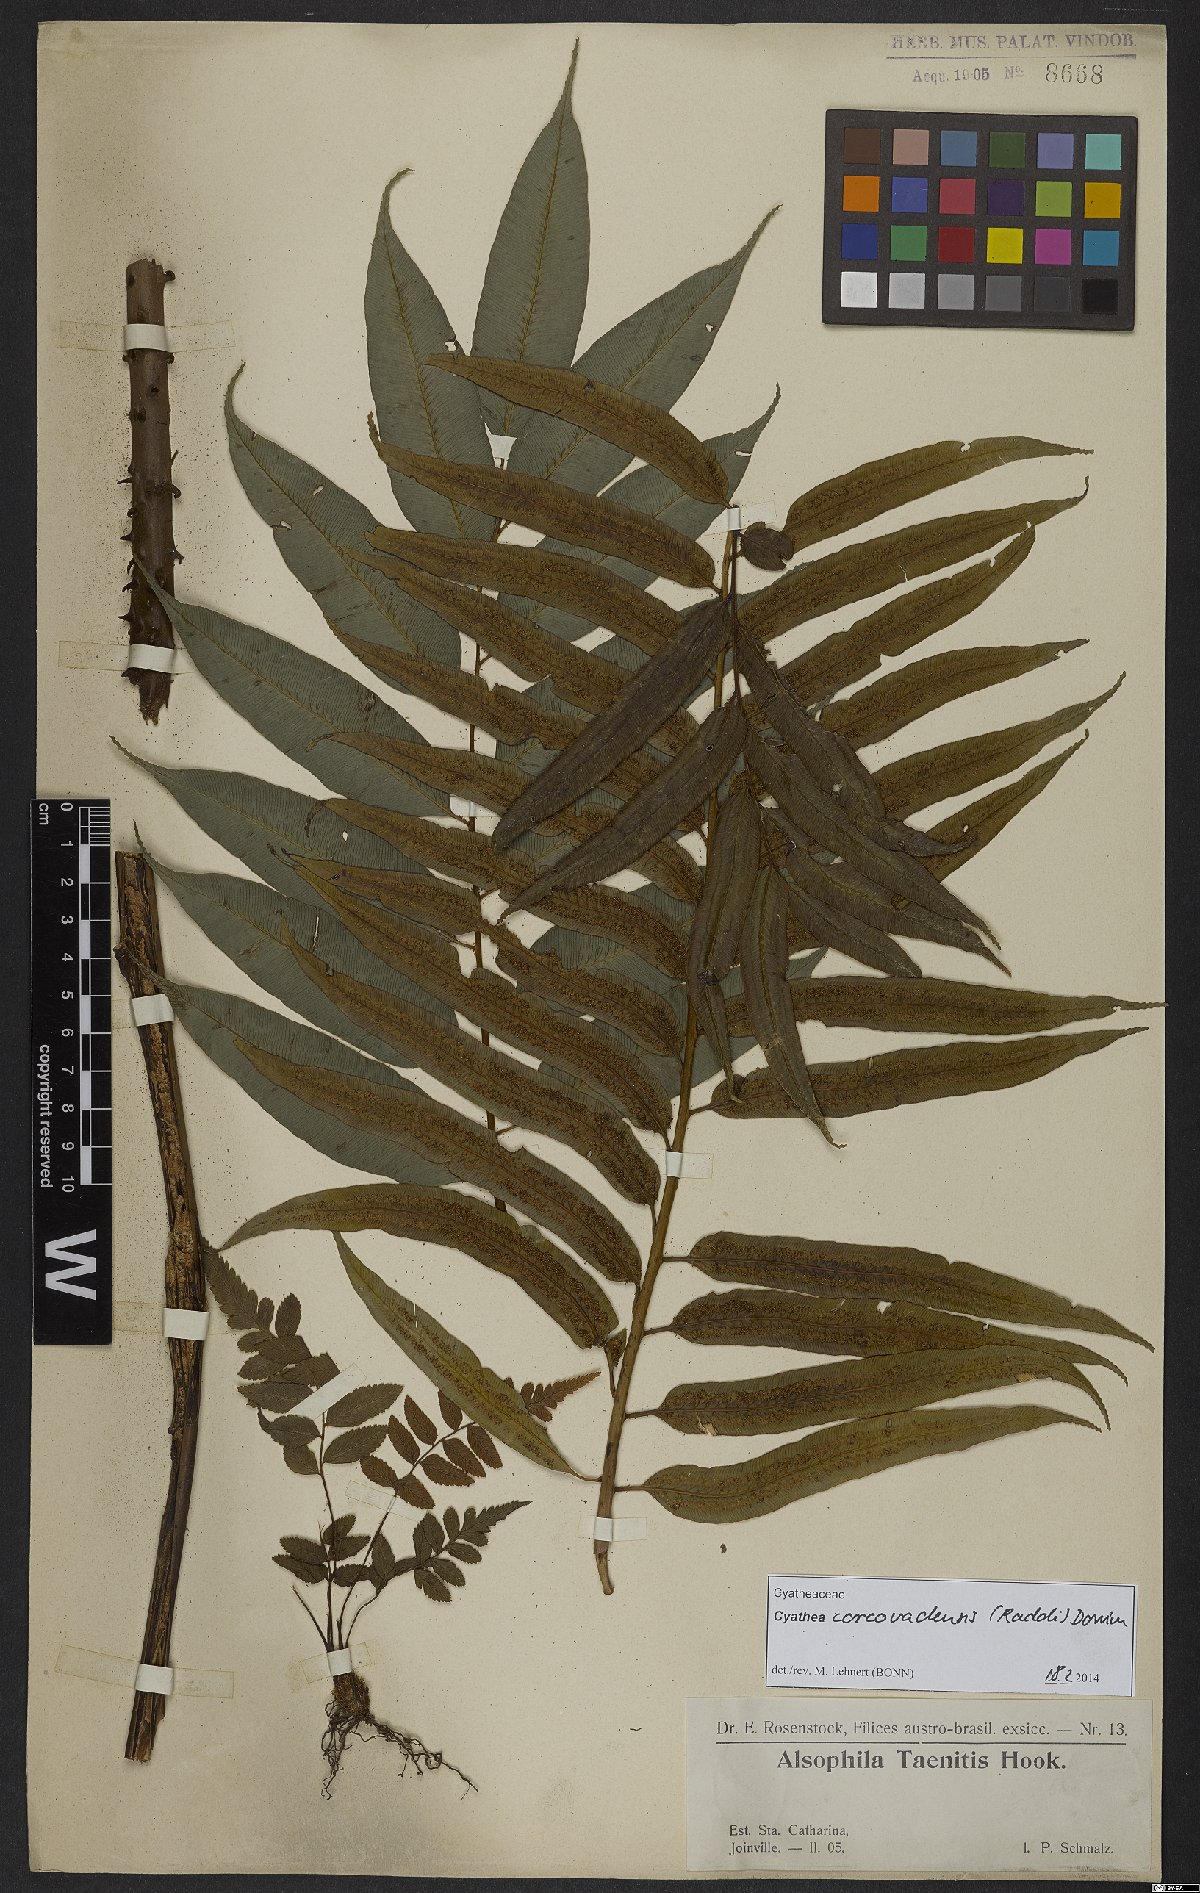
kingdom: Plantae
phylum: Tracheophyta
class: Polypodiopsida
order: Cyatheales
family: Cyatheaceae
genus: Cyathea
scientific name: Cyathea corcovadensis
